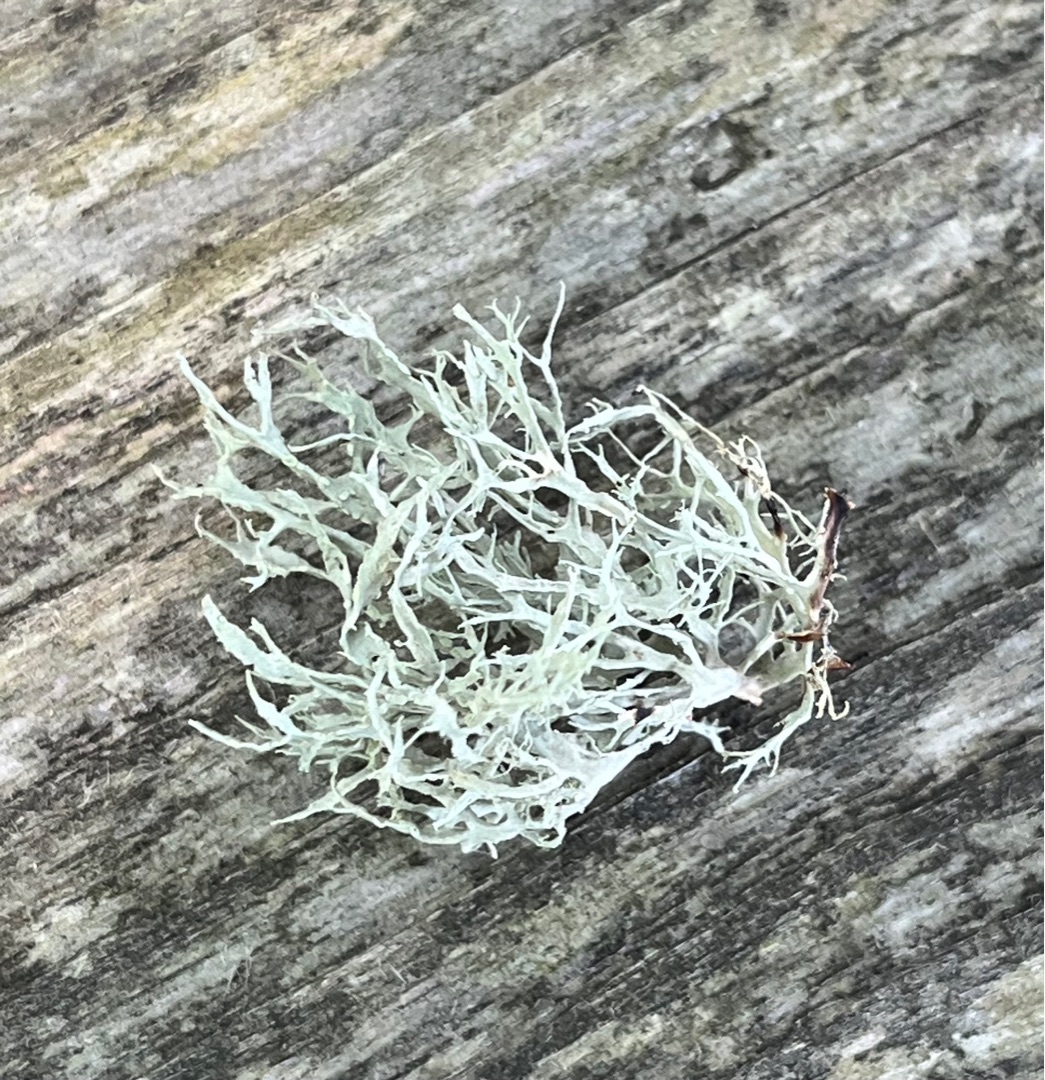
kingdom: Fungi
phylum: Ascomycota
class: Lecanoromycetes
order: Lecanorales
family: Ramalinaceae
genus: Ramalina
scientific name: Ramalina farinacea
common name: Melet grenlav
